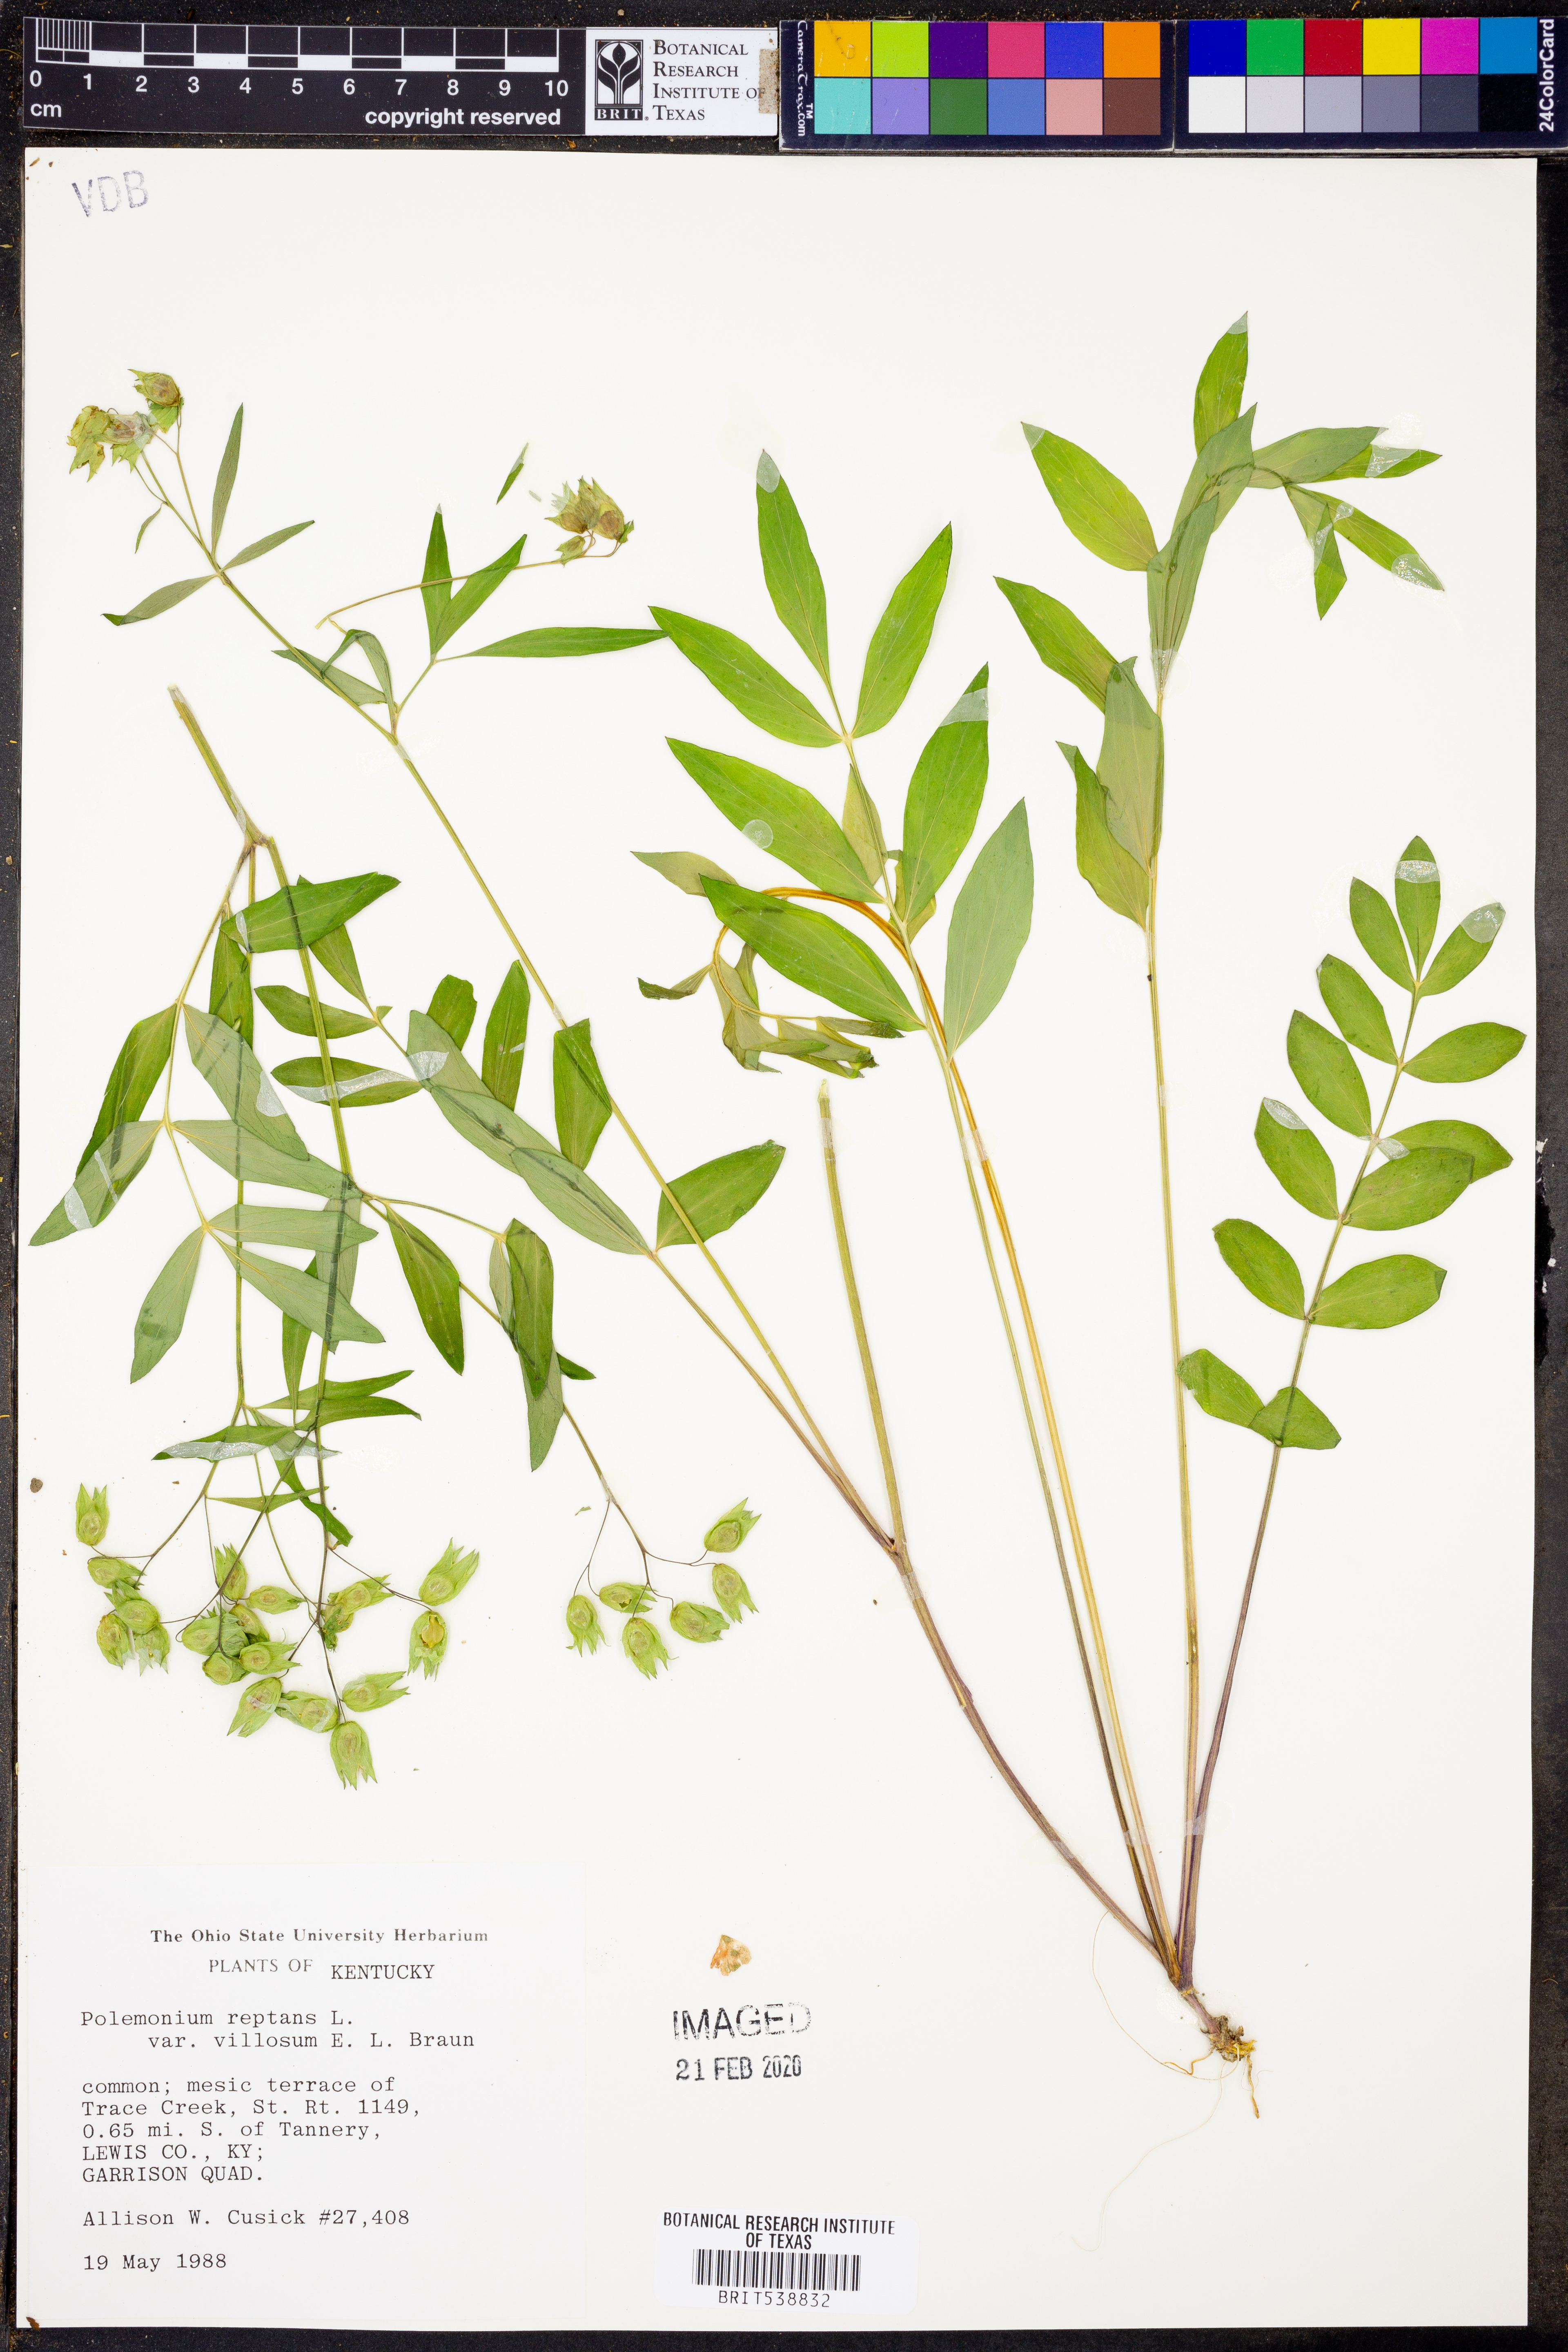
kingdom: Plantae
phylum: Tracheophyta
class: Magnoliopsida
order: Ericales
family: Polemoniaceae
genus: Polemonium
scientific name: Polemonium reptans
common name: Creeping jacob's-ladder
